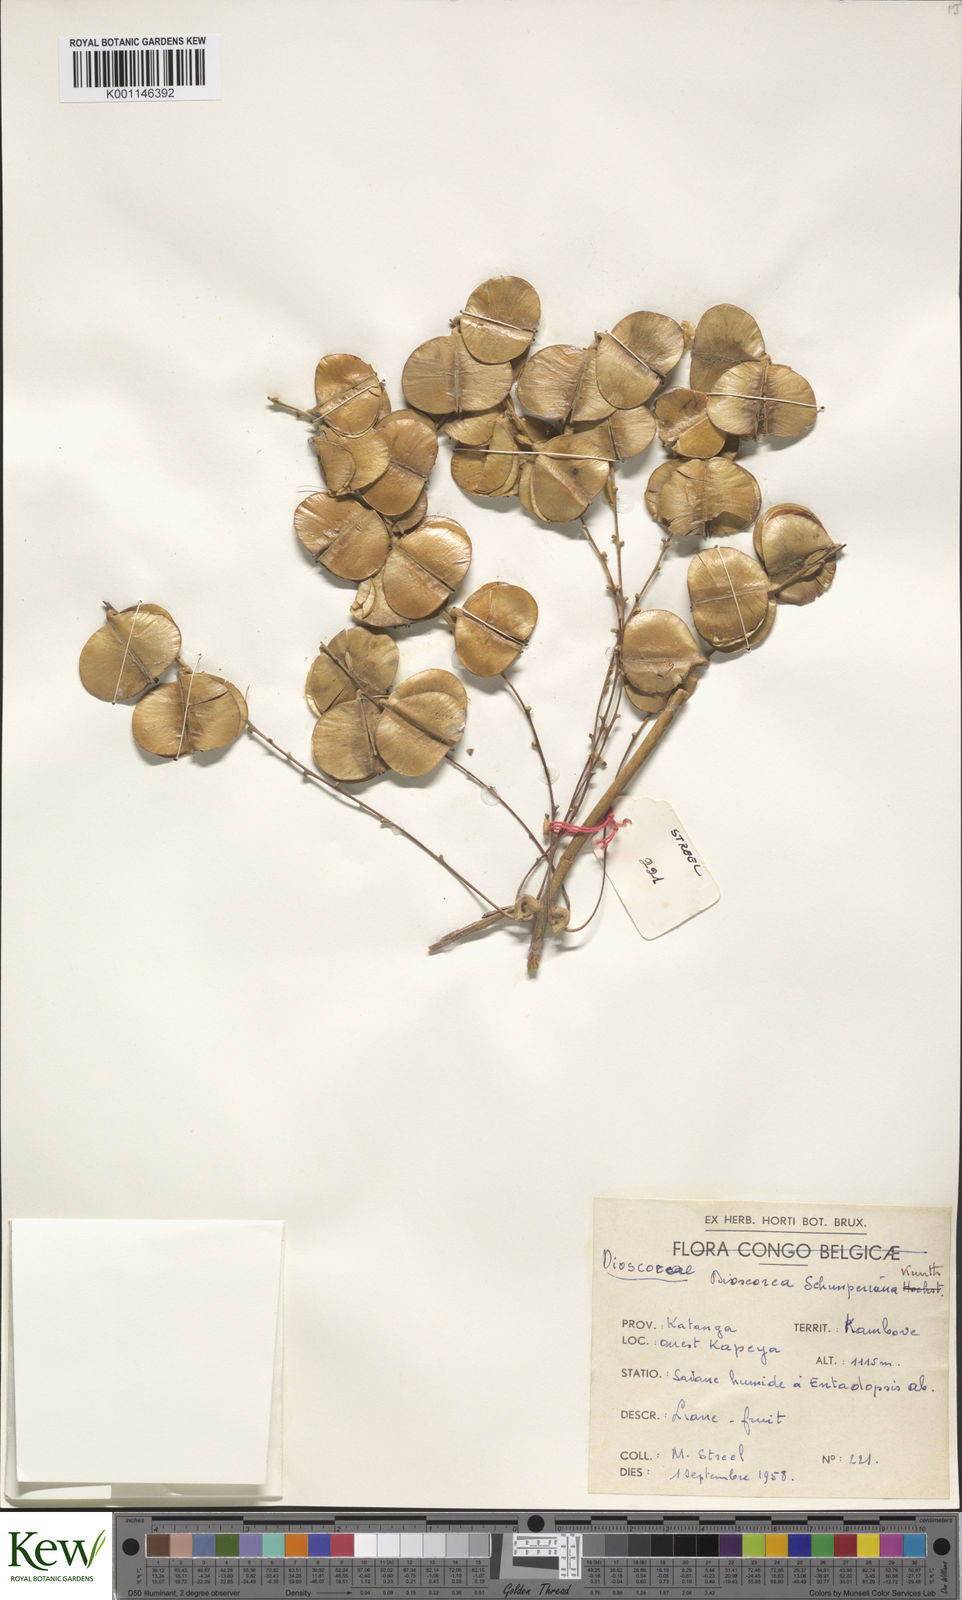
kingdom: Plantae
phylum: Tracheophyta
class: Liliopsida
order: Dioscoreales
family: Dioscoreaceae
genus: Dioscorea
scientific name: Dioscorea schimperiana
